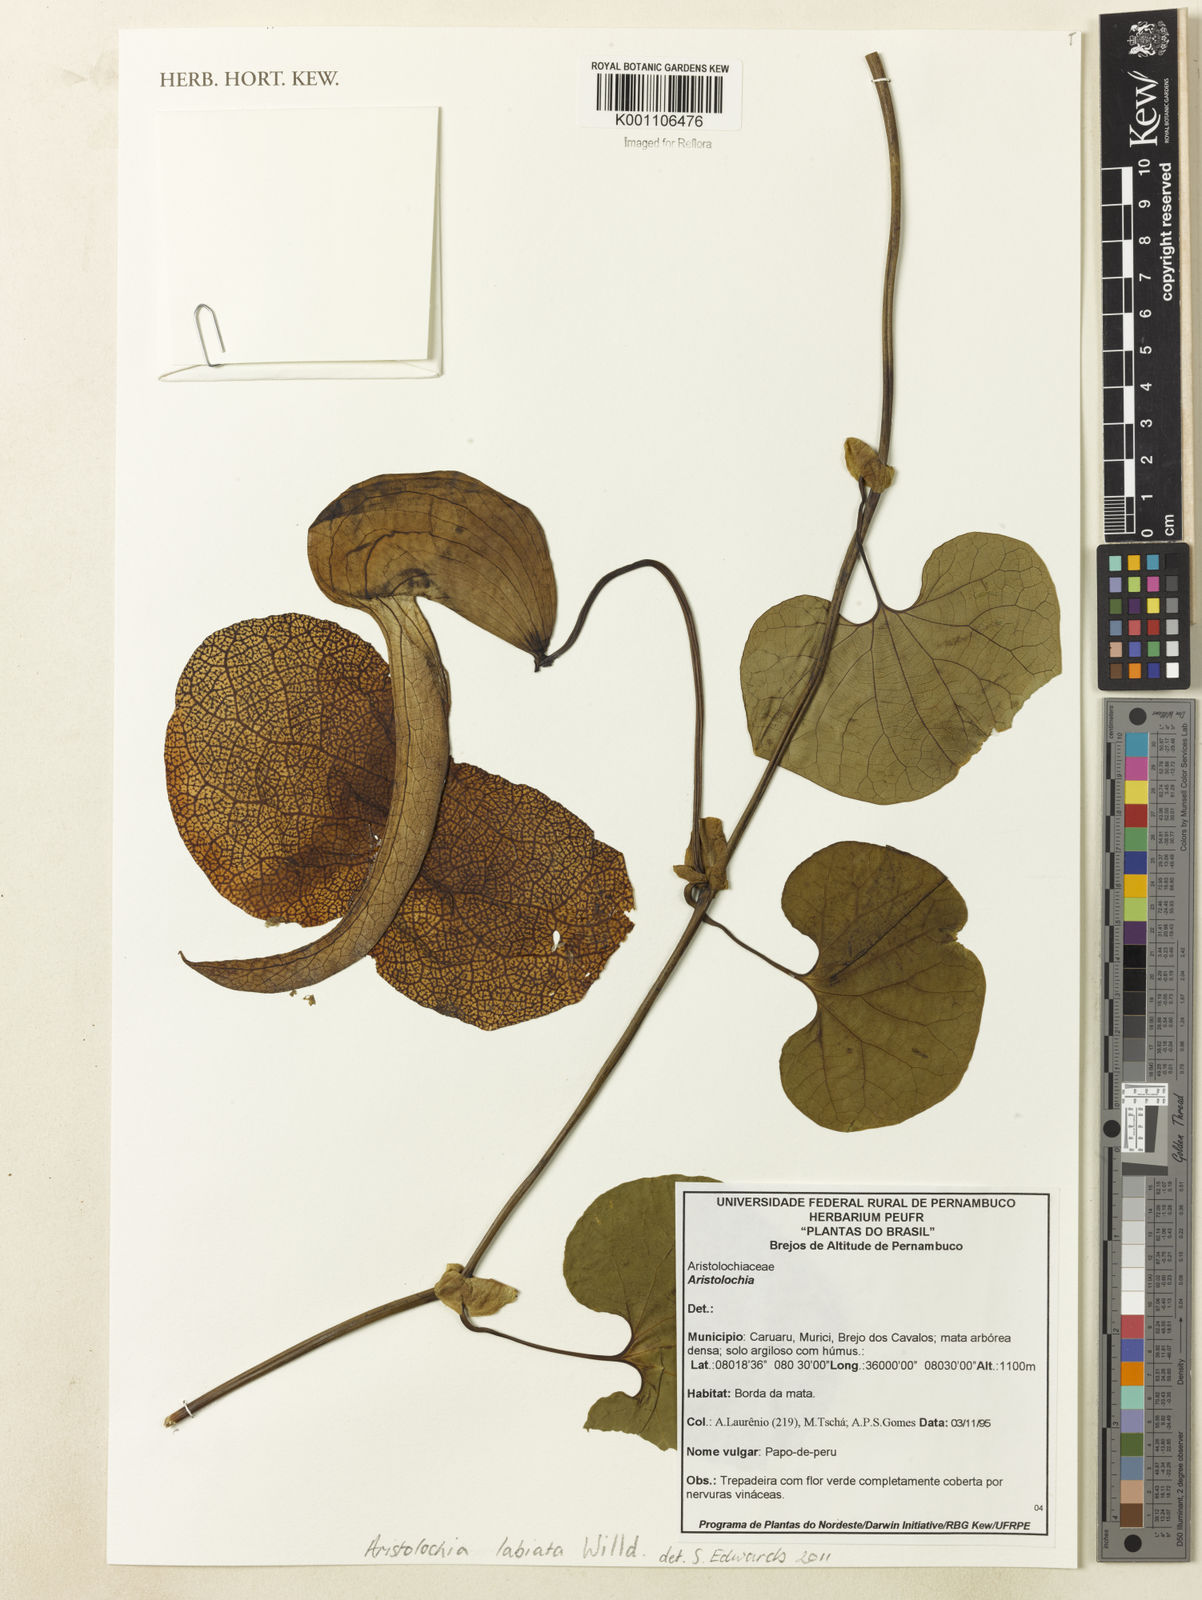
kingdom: Plantae
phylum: Tracheophyta
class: Magnoliopsida
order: Piperales
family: Aristolochiaceae
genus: Aristolochia
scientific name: Aristolochia labiata
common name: Mottled dutchman's pipe
